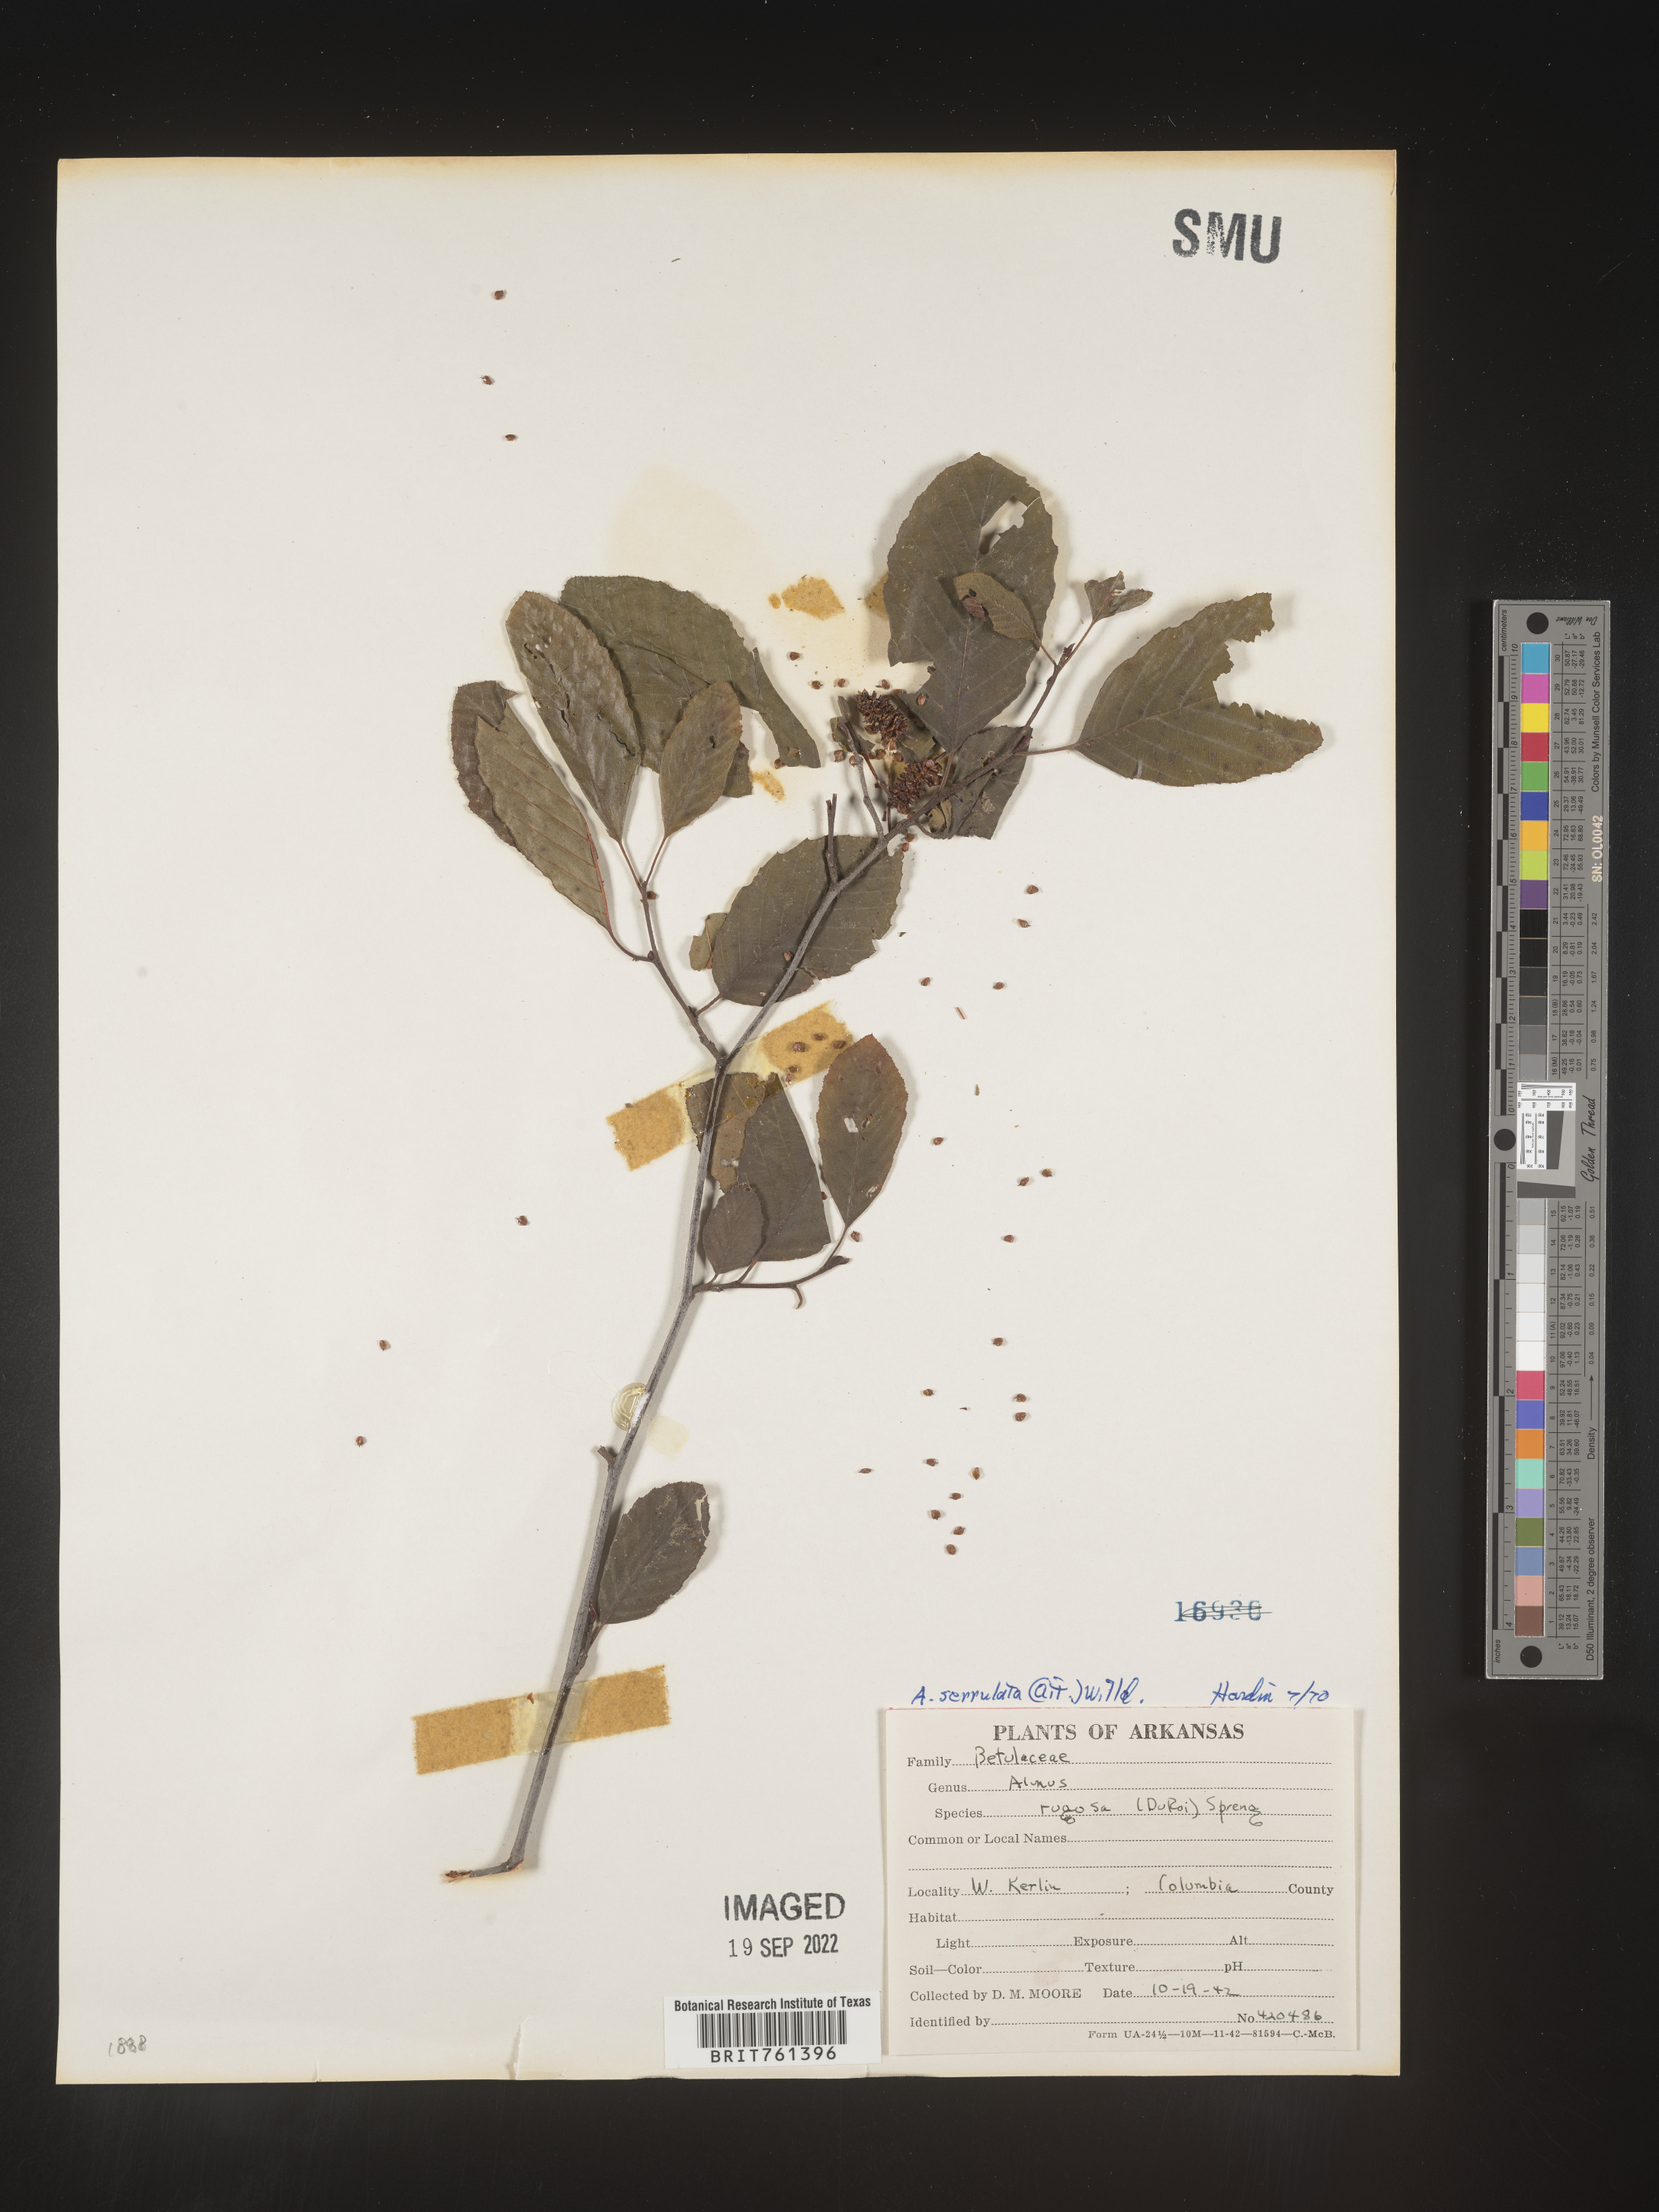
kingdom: Plantae
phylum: Tracheophyta
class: Magnoliopsida
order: Fagales
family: Betulaceae
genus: Alnus
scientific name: Alnus serrulata
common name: Hazel alder
